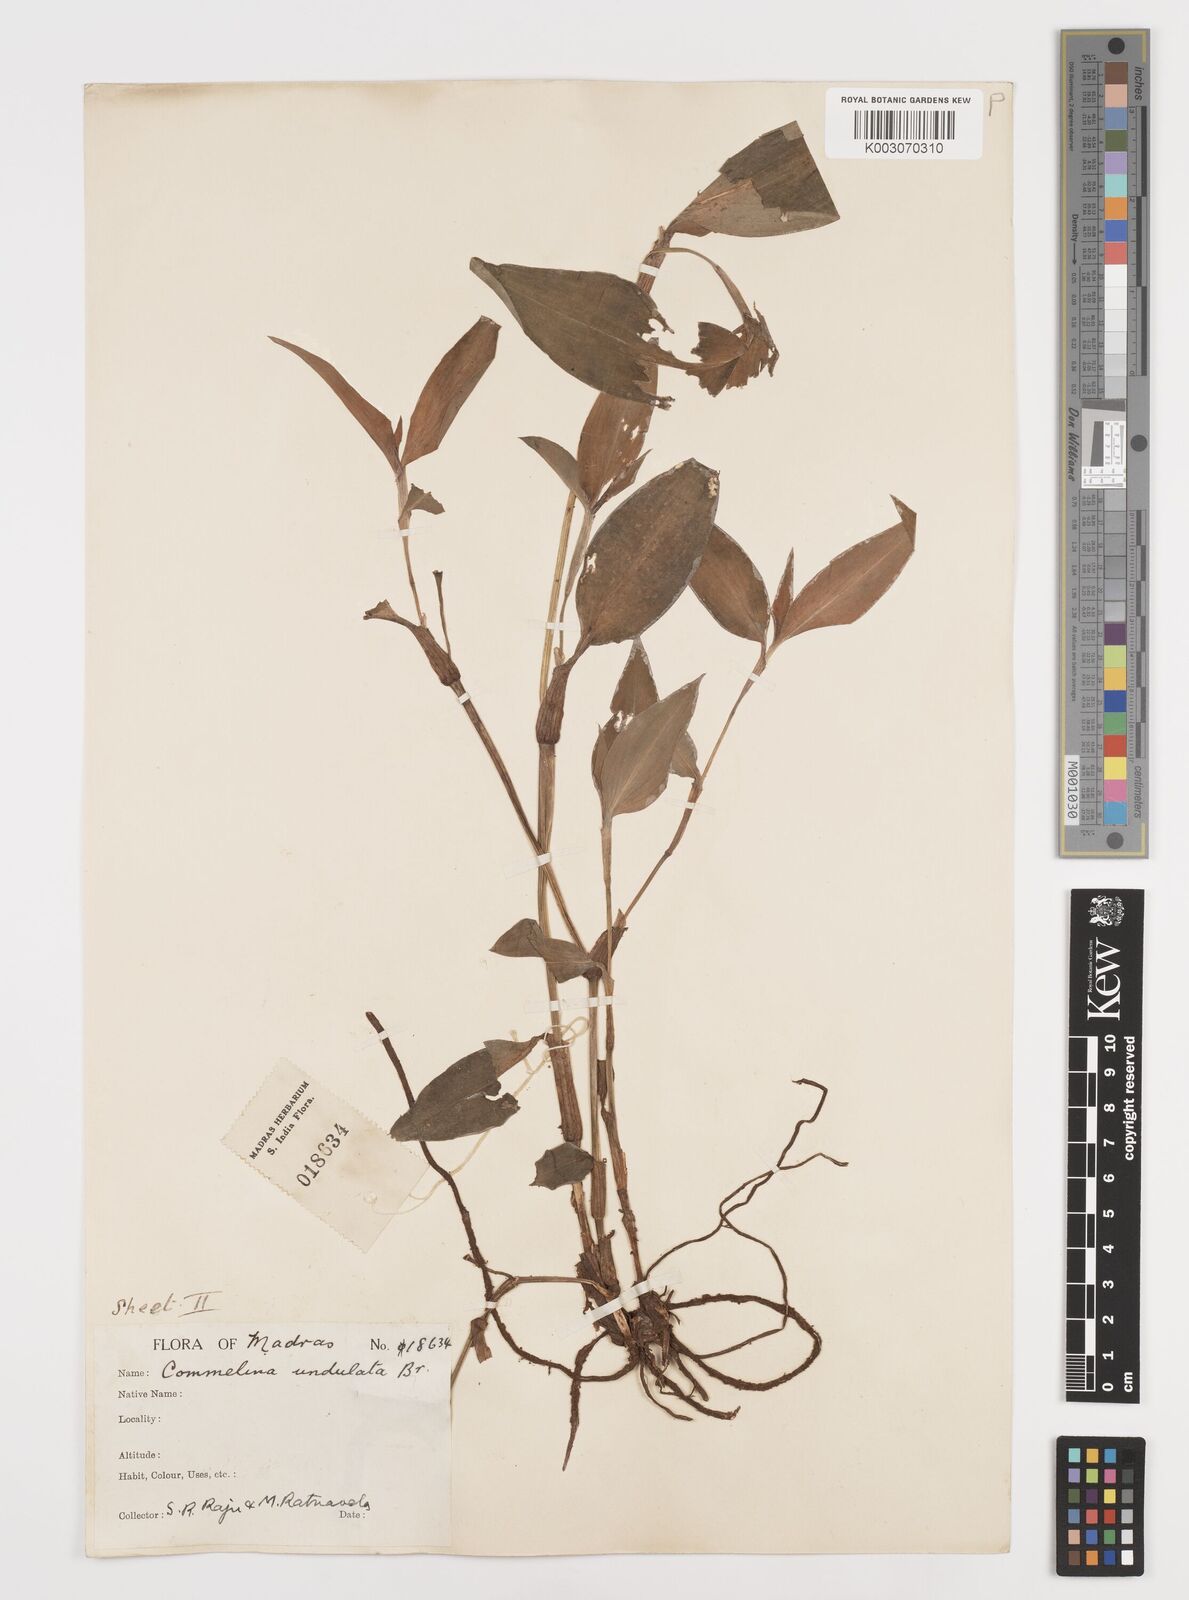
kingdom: Plantae
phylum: Tracheophyta
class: Liliopsida
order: Commelinales
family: Commelinaceae
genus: Commelina
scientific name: Commelina chamissonis
